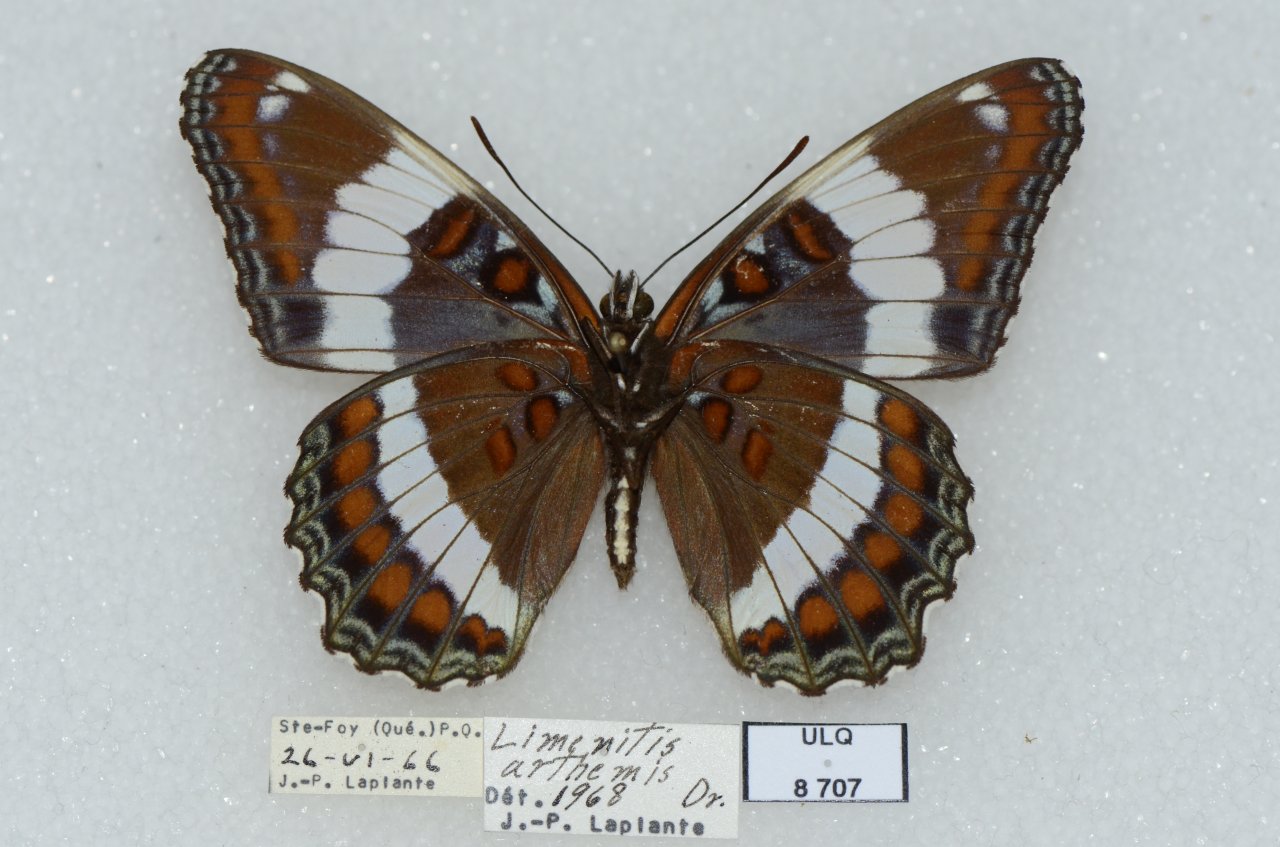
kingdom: Animalia
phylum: Arthropoda
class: Insecta
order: Lepidoptera
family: Nymphalidae
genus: Limenitis
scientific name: Limenitis arthemis
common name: Red-spotted Admiral
